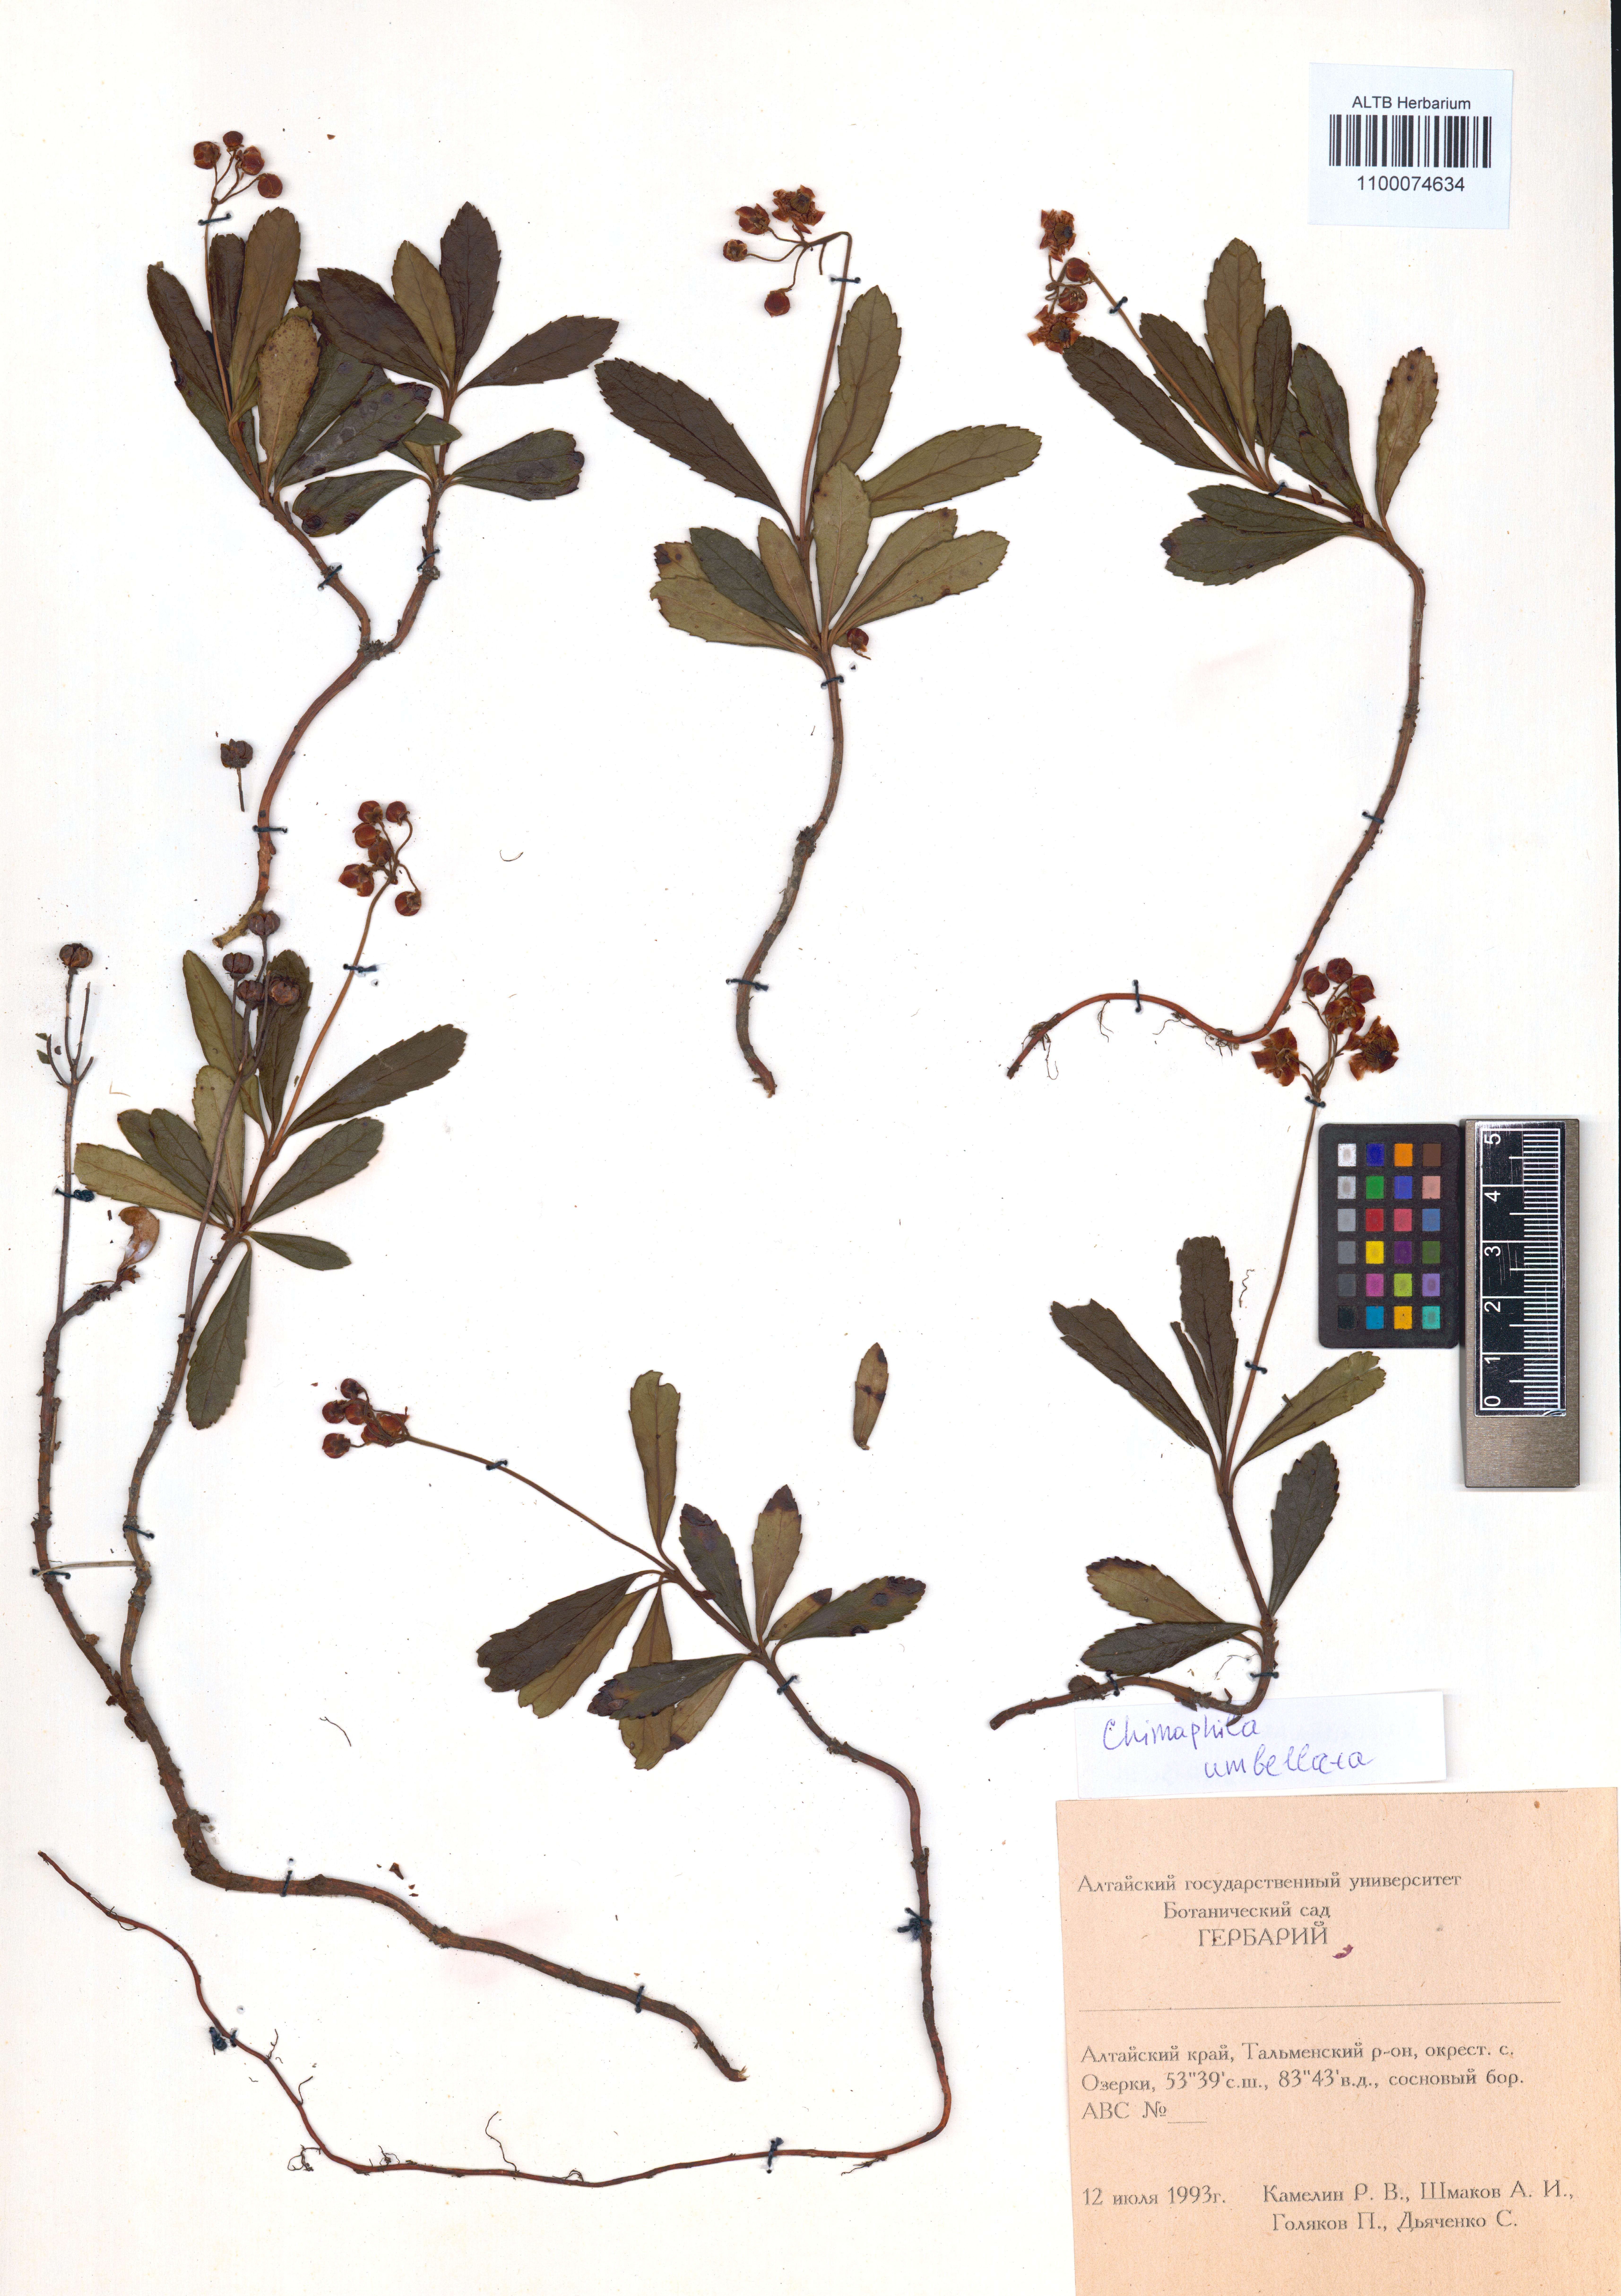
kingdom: Plantae
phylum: Tracheophyta
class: Magnoliopsida
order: Ericales
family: Ericaceae
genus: Chimaphila
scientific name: Chimaphila umbellata
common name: Pipsissewa
